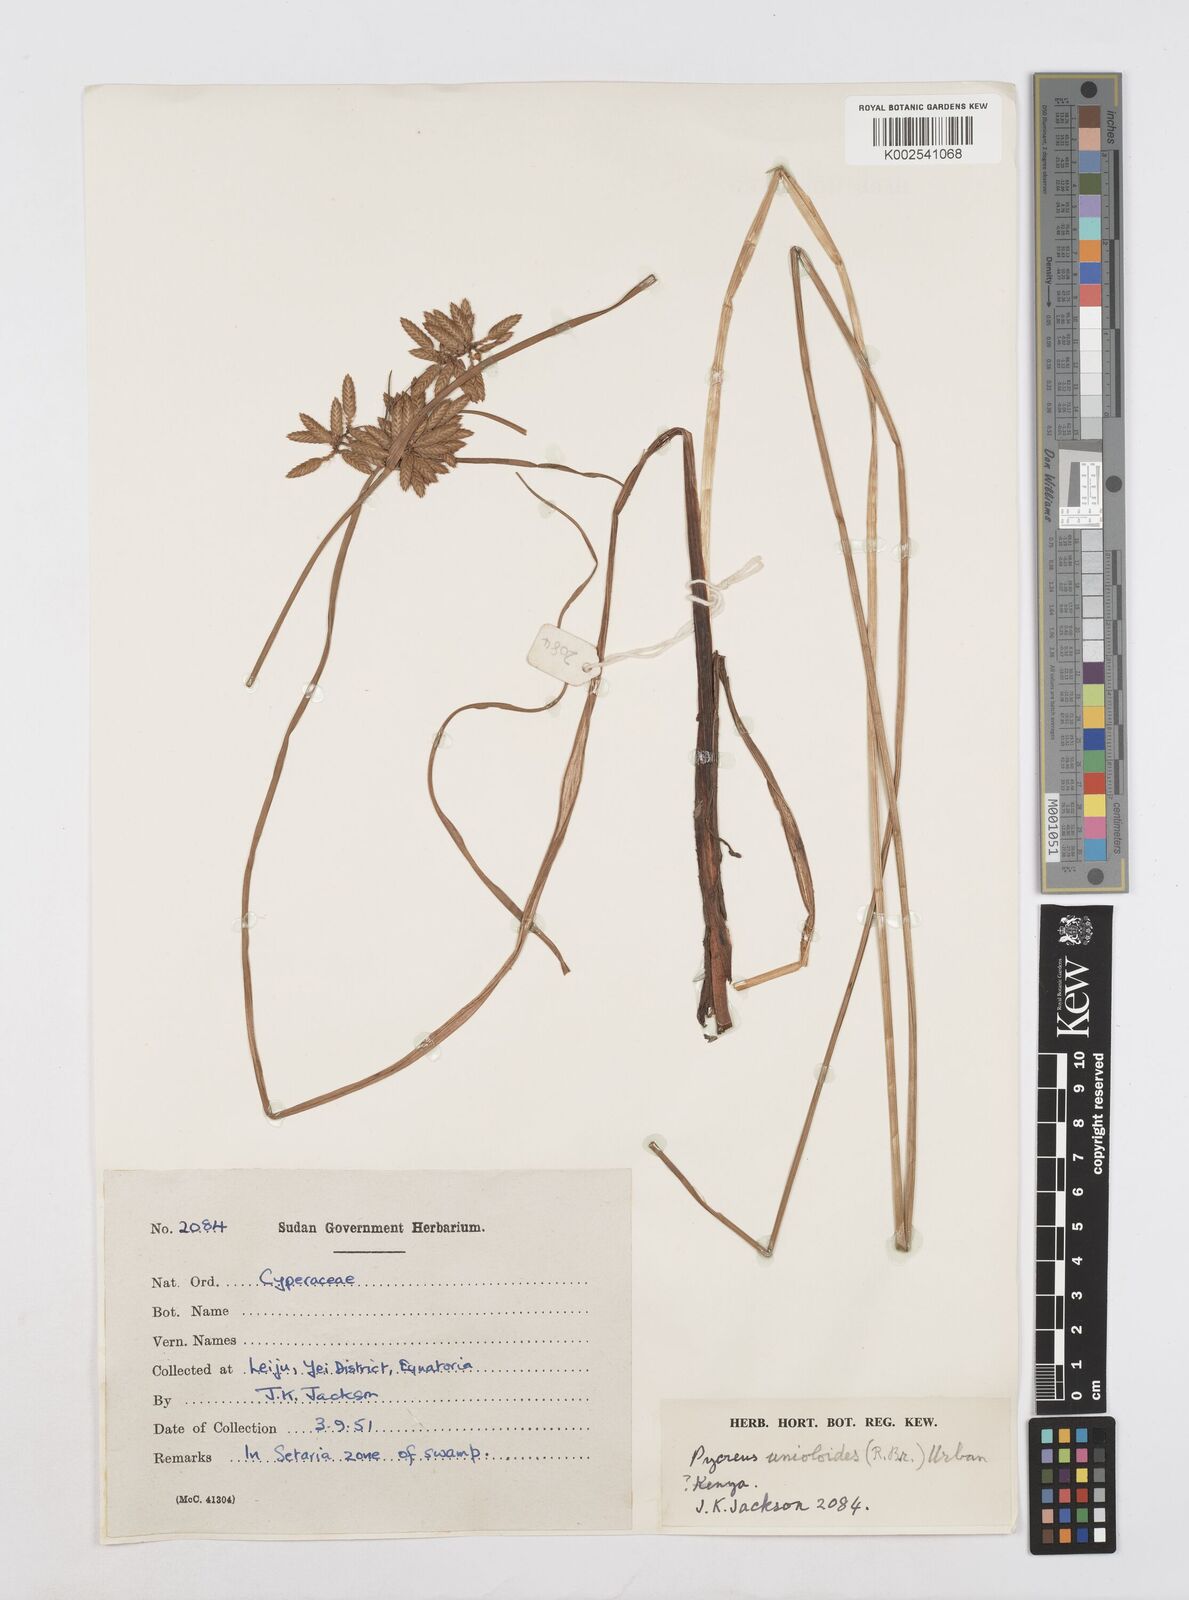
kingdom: Plantae
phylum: Tracheophyta
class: Liliopsida
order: Poales
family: Cyperaceae
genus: Cyperus
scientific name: Cyperus unioloides
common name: Uniola flatsedge
